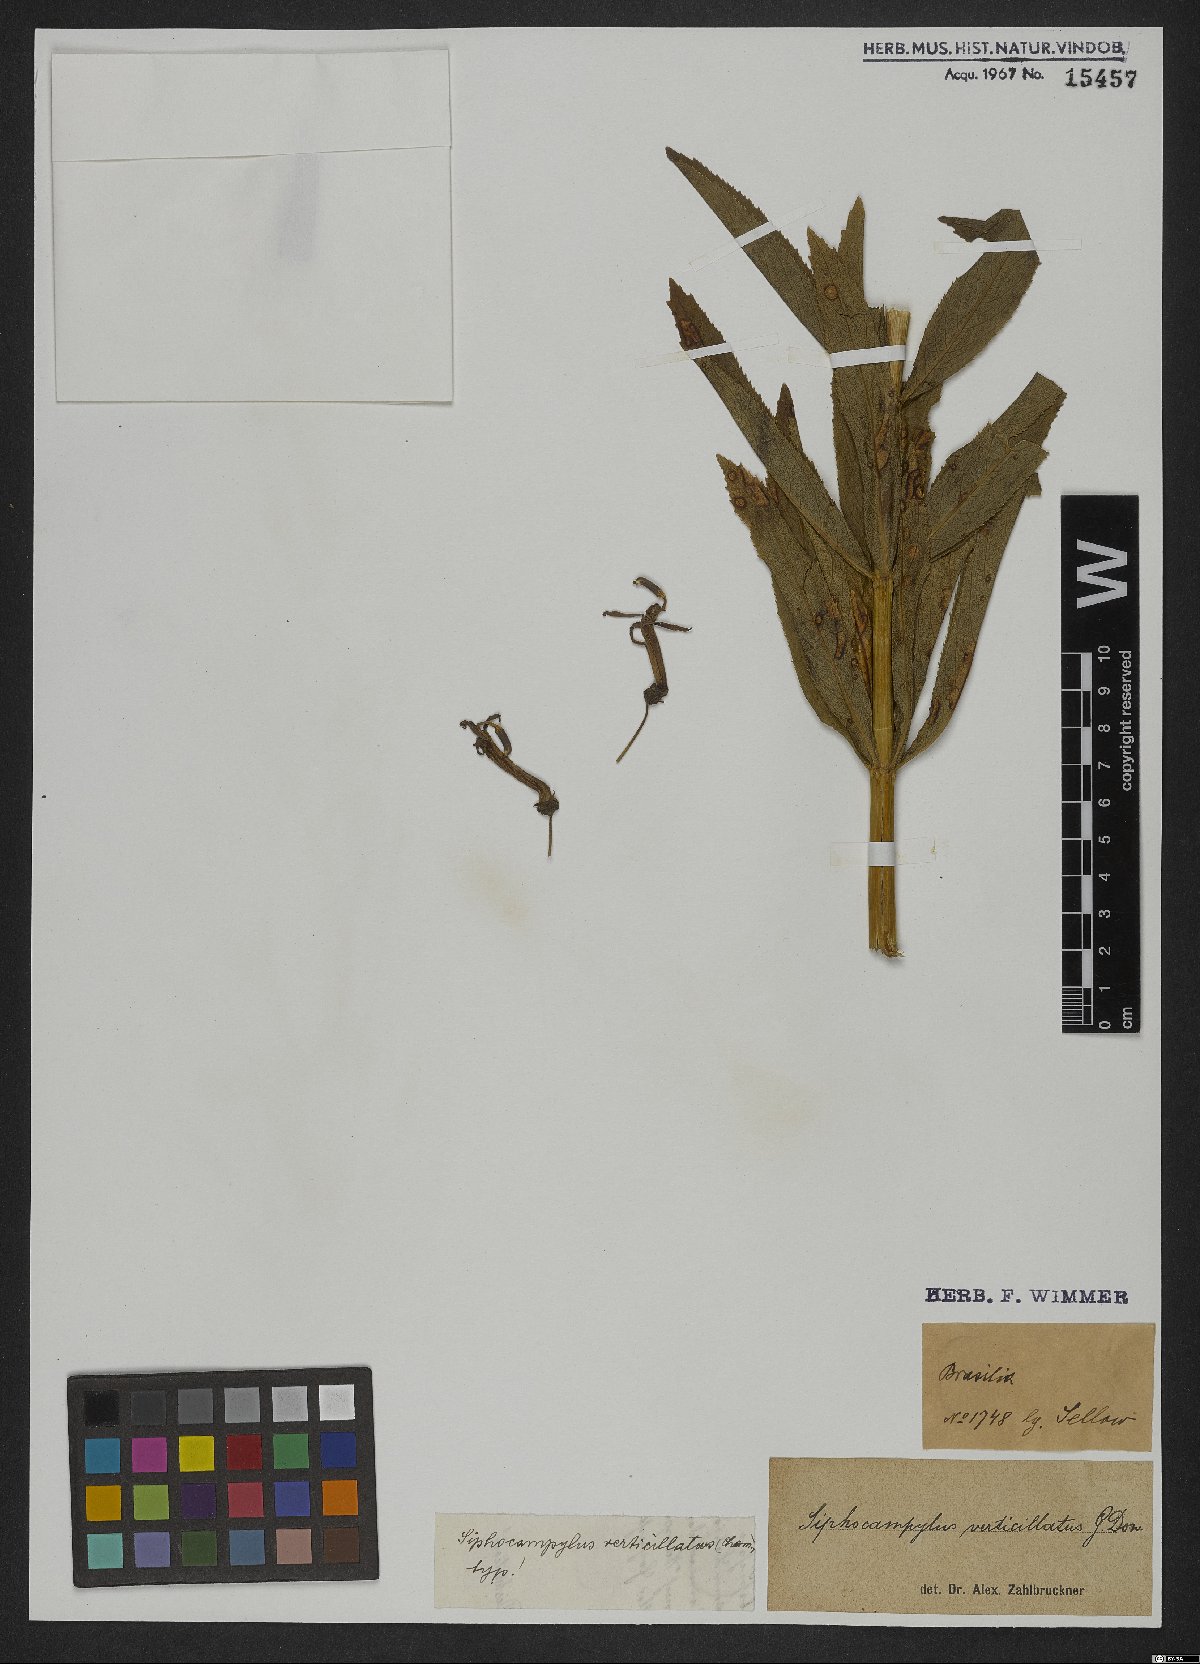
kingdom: Plantae
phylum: Tracheophyta
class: Magnoliopsida
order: Asterales
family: Campanulaceae
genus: Siphocampylus
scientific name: Siphocampylus verticillatus
